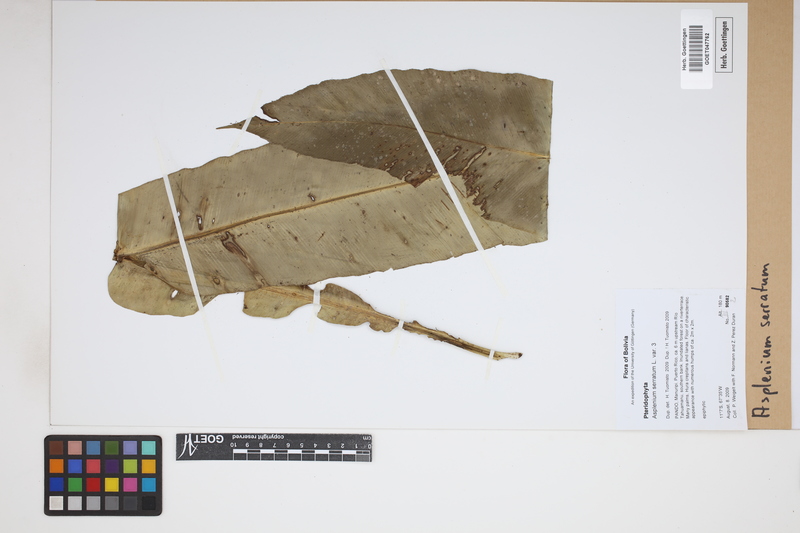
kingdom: Plantae
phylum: Tracheophyta
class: Polypodiopsida
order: Polypodiales
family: Aspleniaceae
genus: Asplenium
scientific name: Asplenium serratum
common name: Wild birdnest fern
